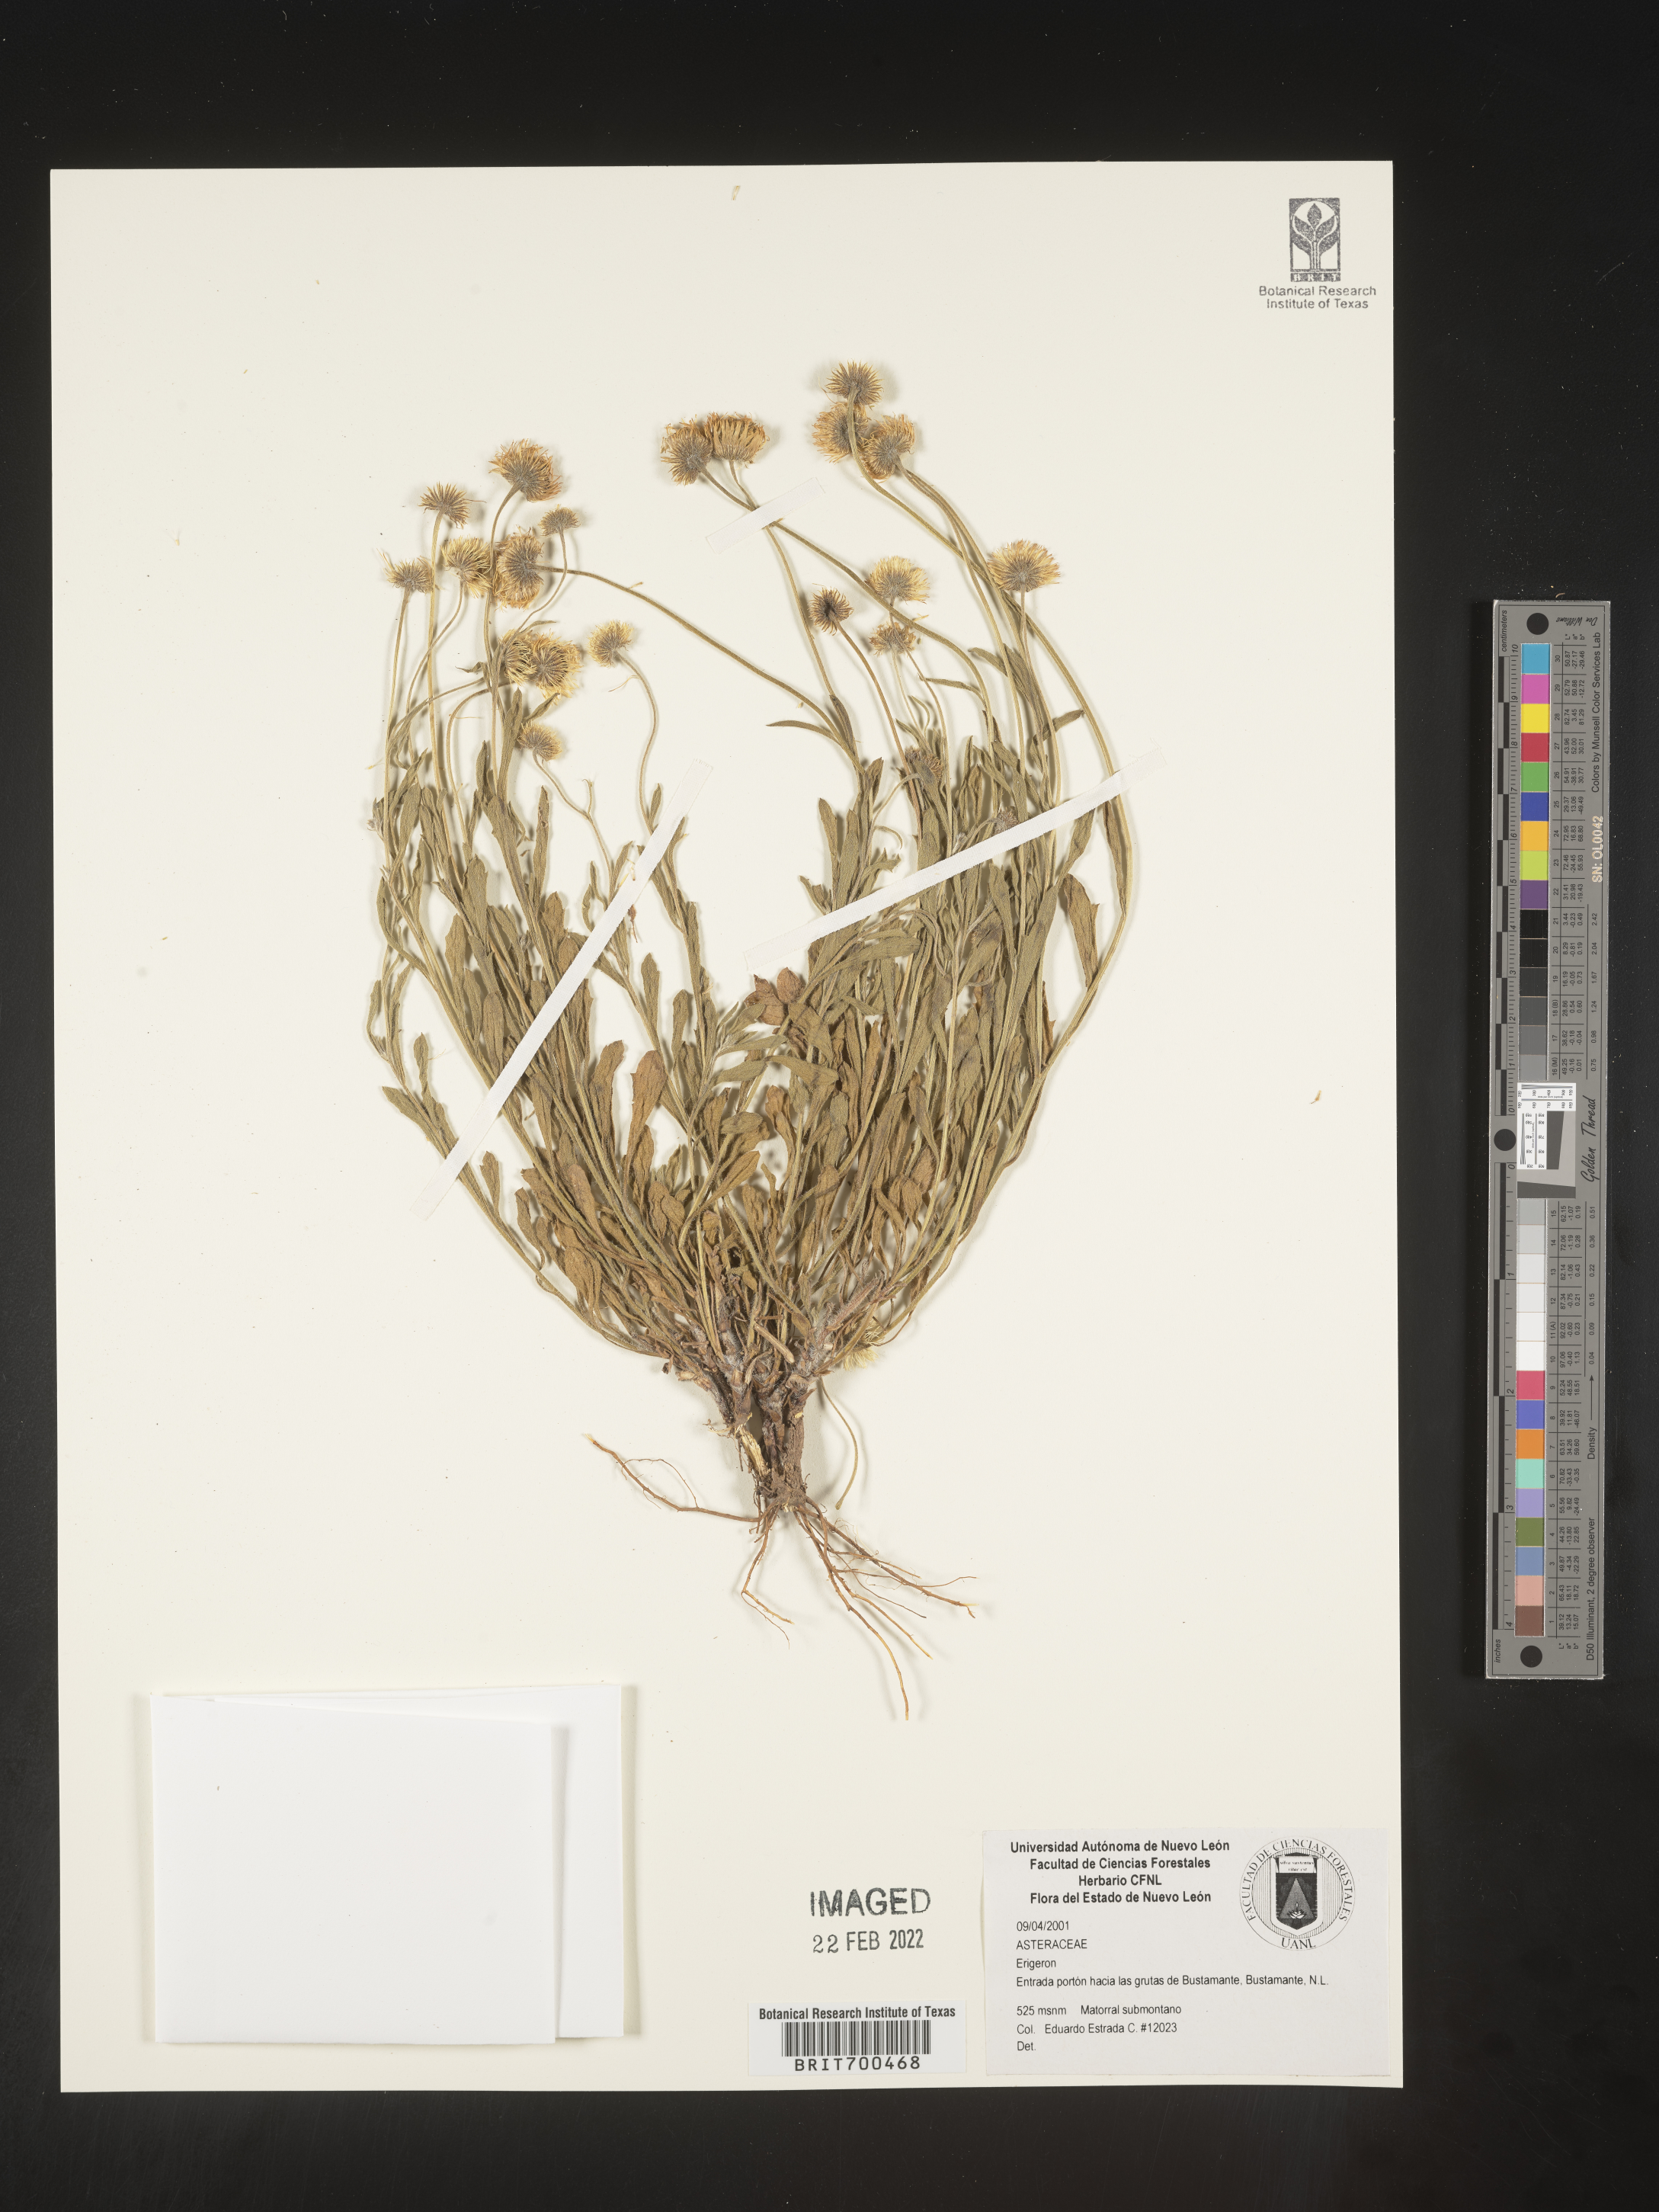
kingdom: Plantae
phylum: Tracheophyta
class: Magnoliopsida
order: Asterales
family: Asteraceae
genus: Erigeron
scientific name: Erigeron
